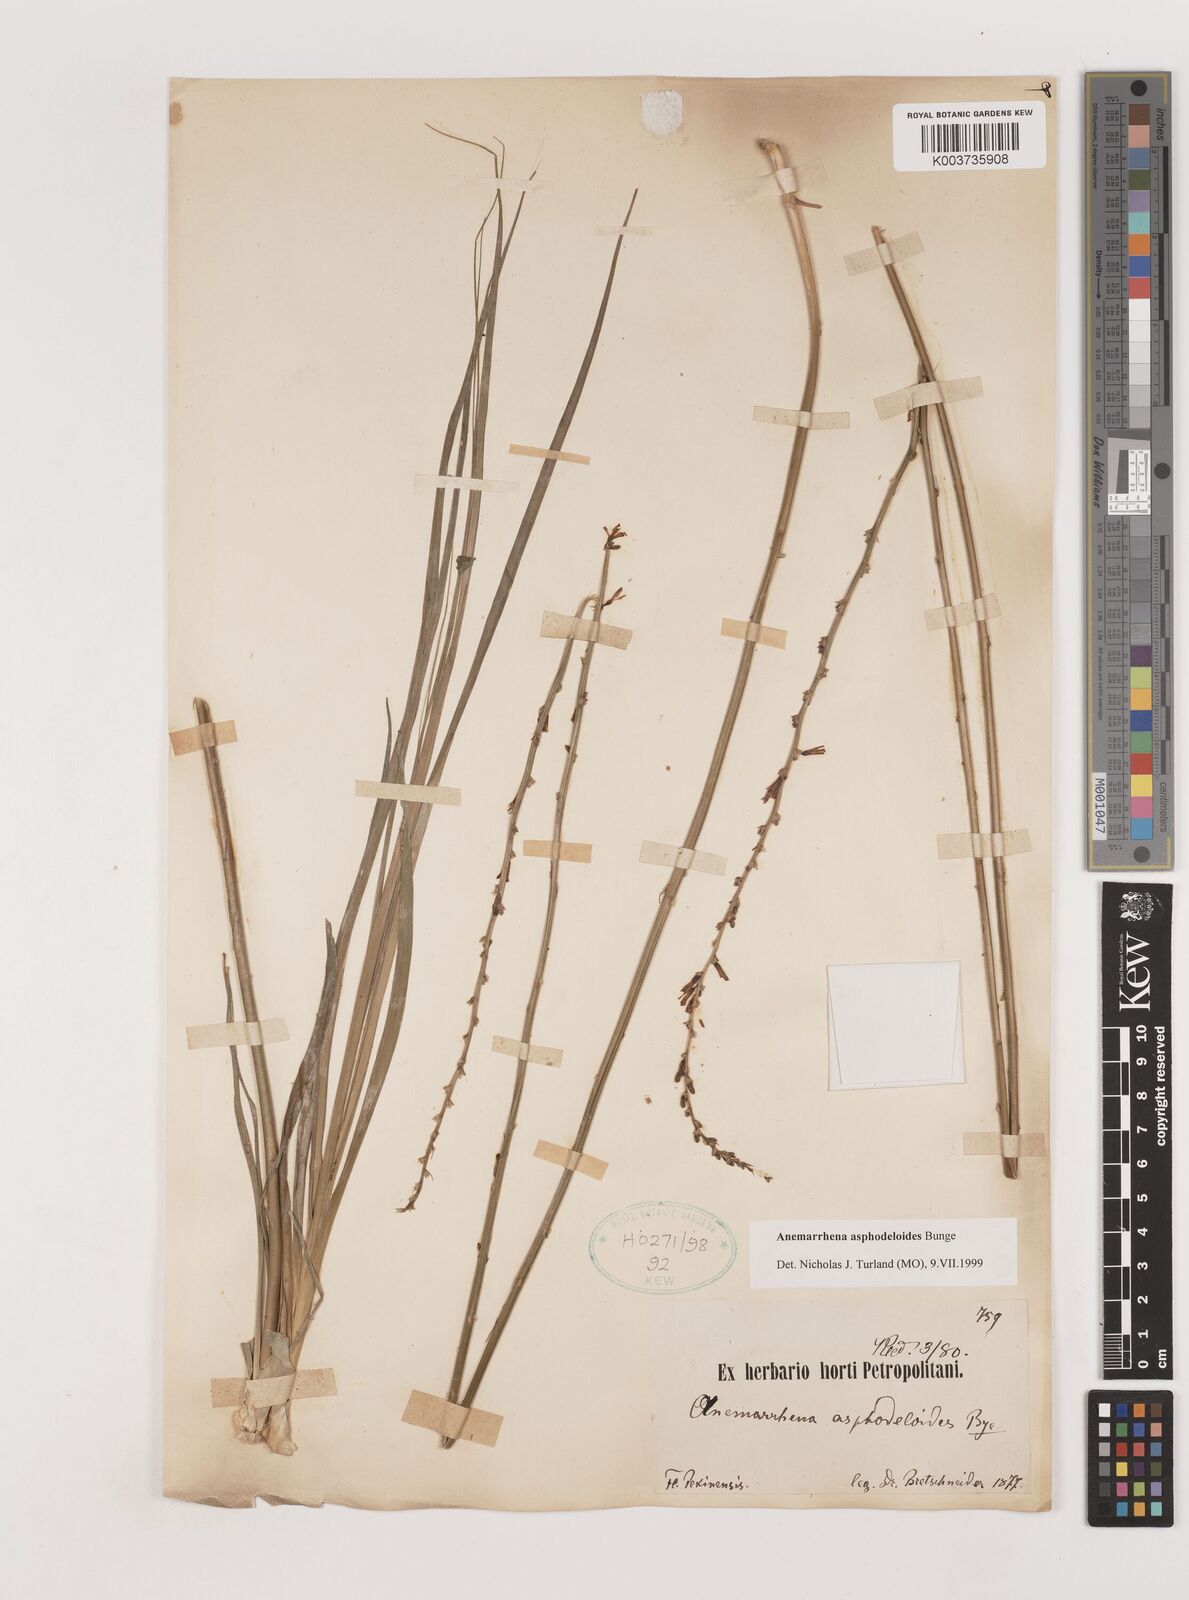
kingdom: Plantae
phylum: Tracheophyta
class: Liliopsida
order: Asparagales
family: Asparagaceae
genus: Anemarrhena
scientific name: Anemarrhena asphodeloides
